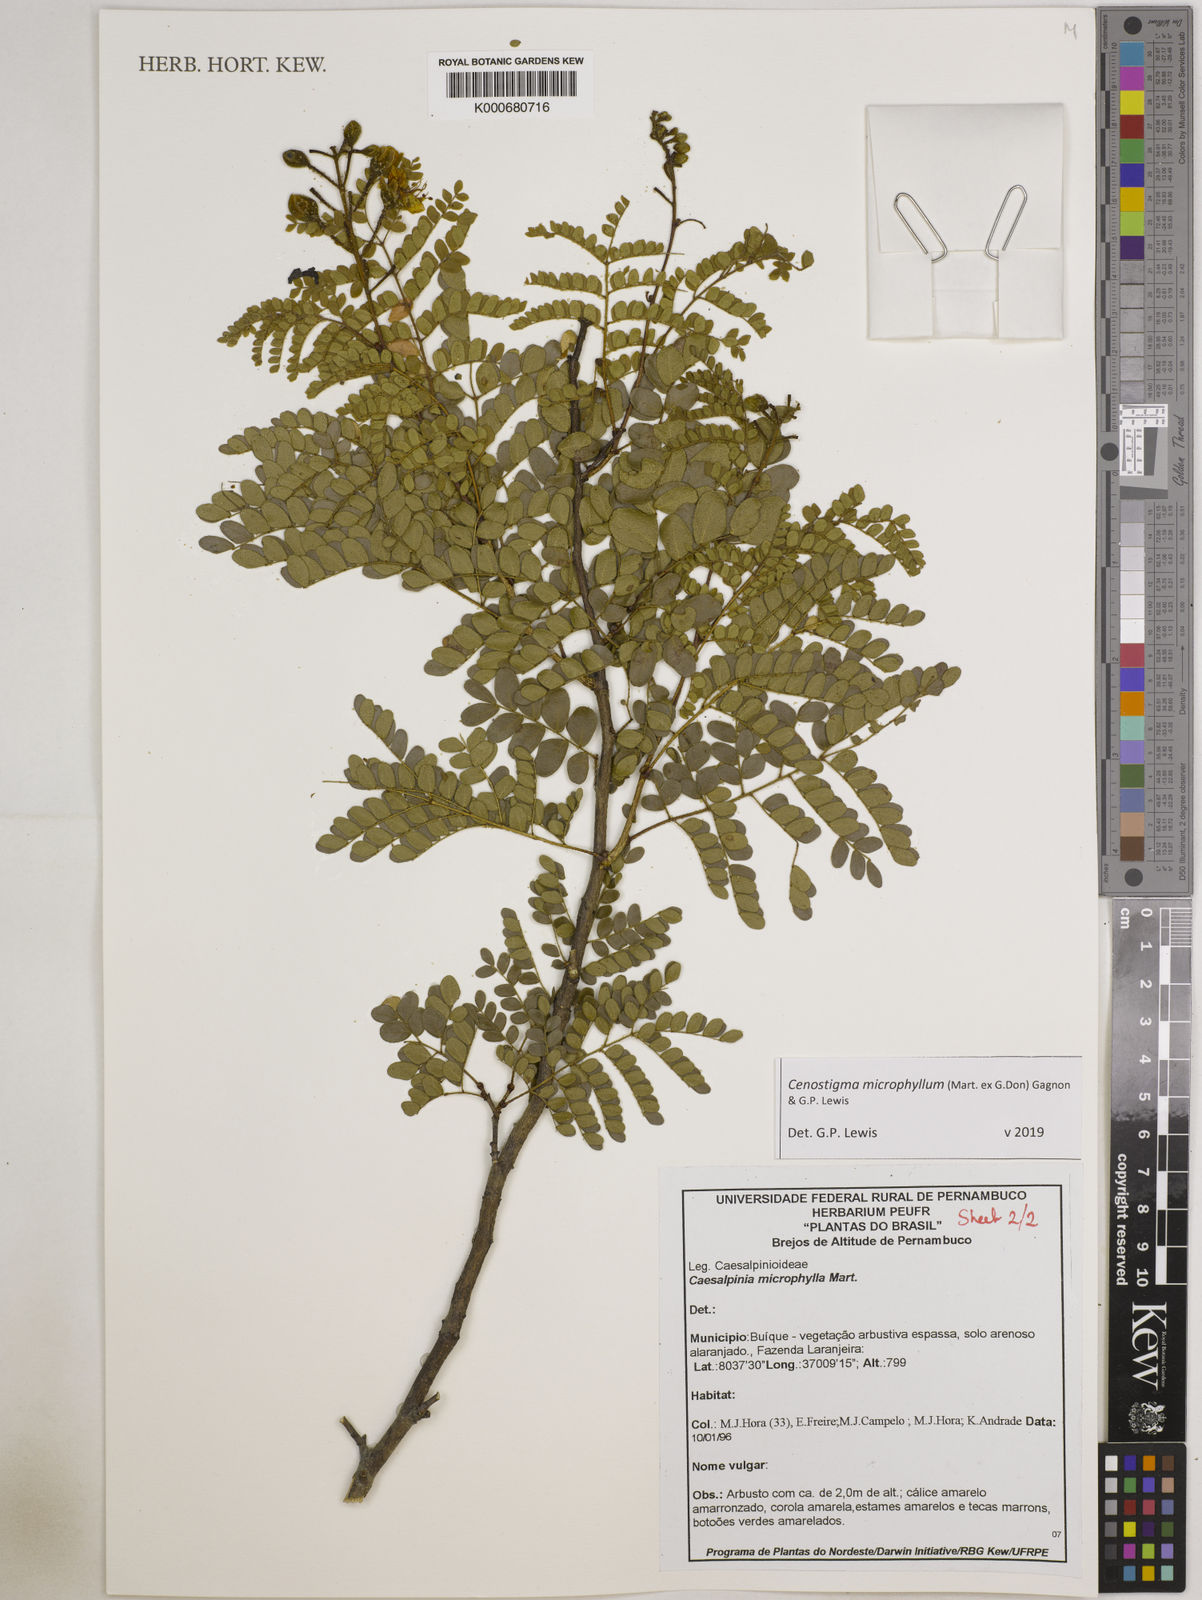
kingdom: Plantae
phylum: Tracheophyta
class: Magnoliopsida
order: Fabales
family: Fabaceae
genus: Cenostigma
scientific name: Cenostigma microphyllum
